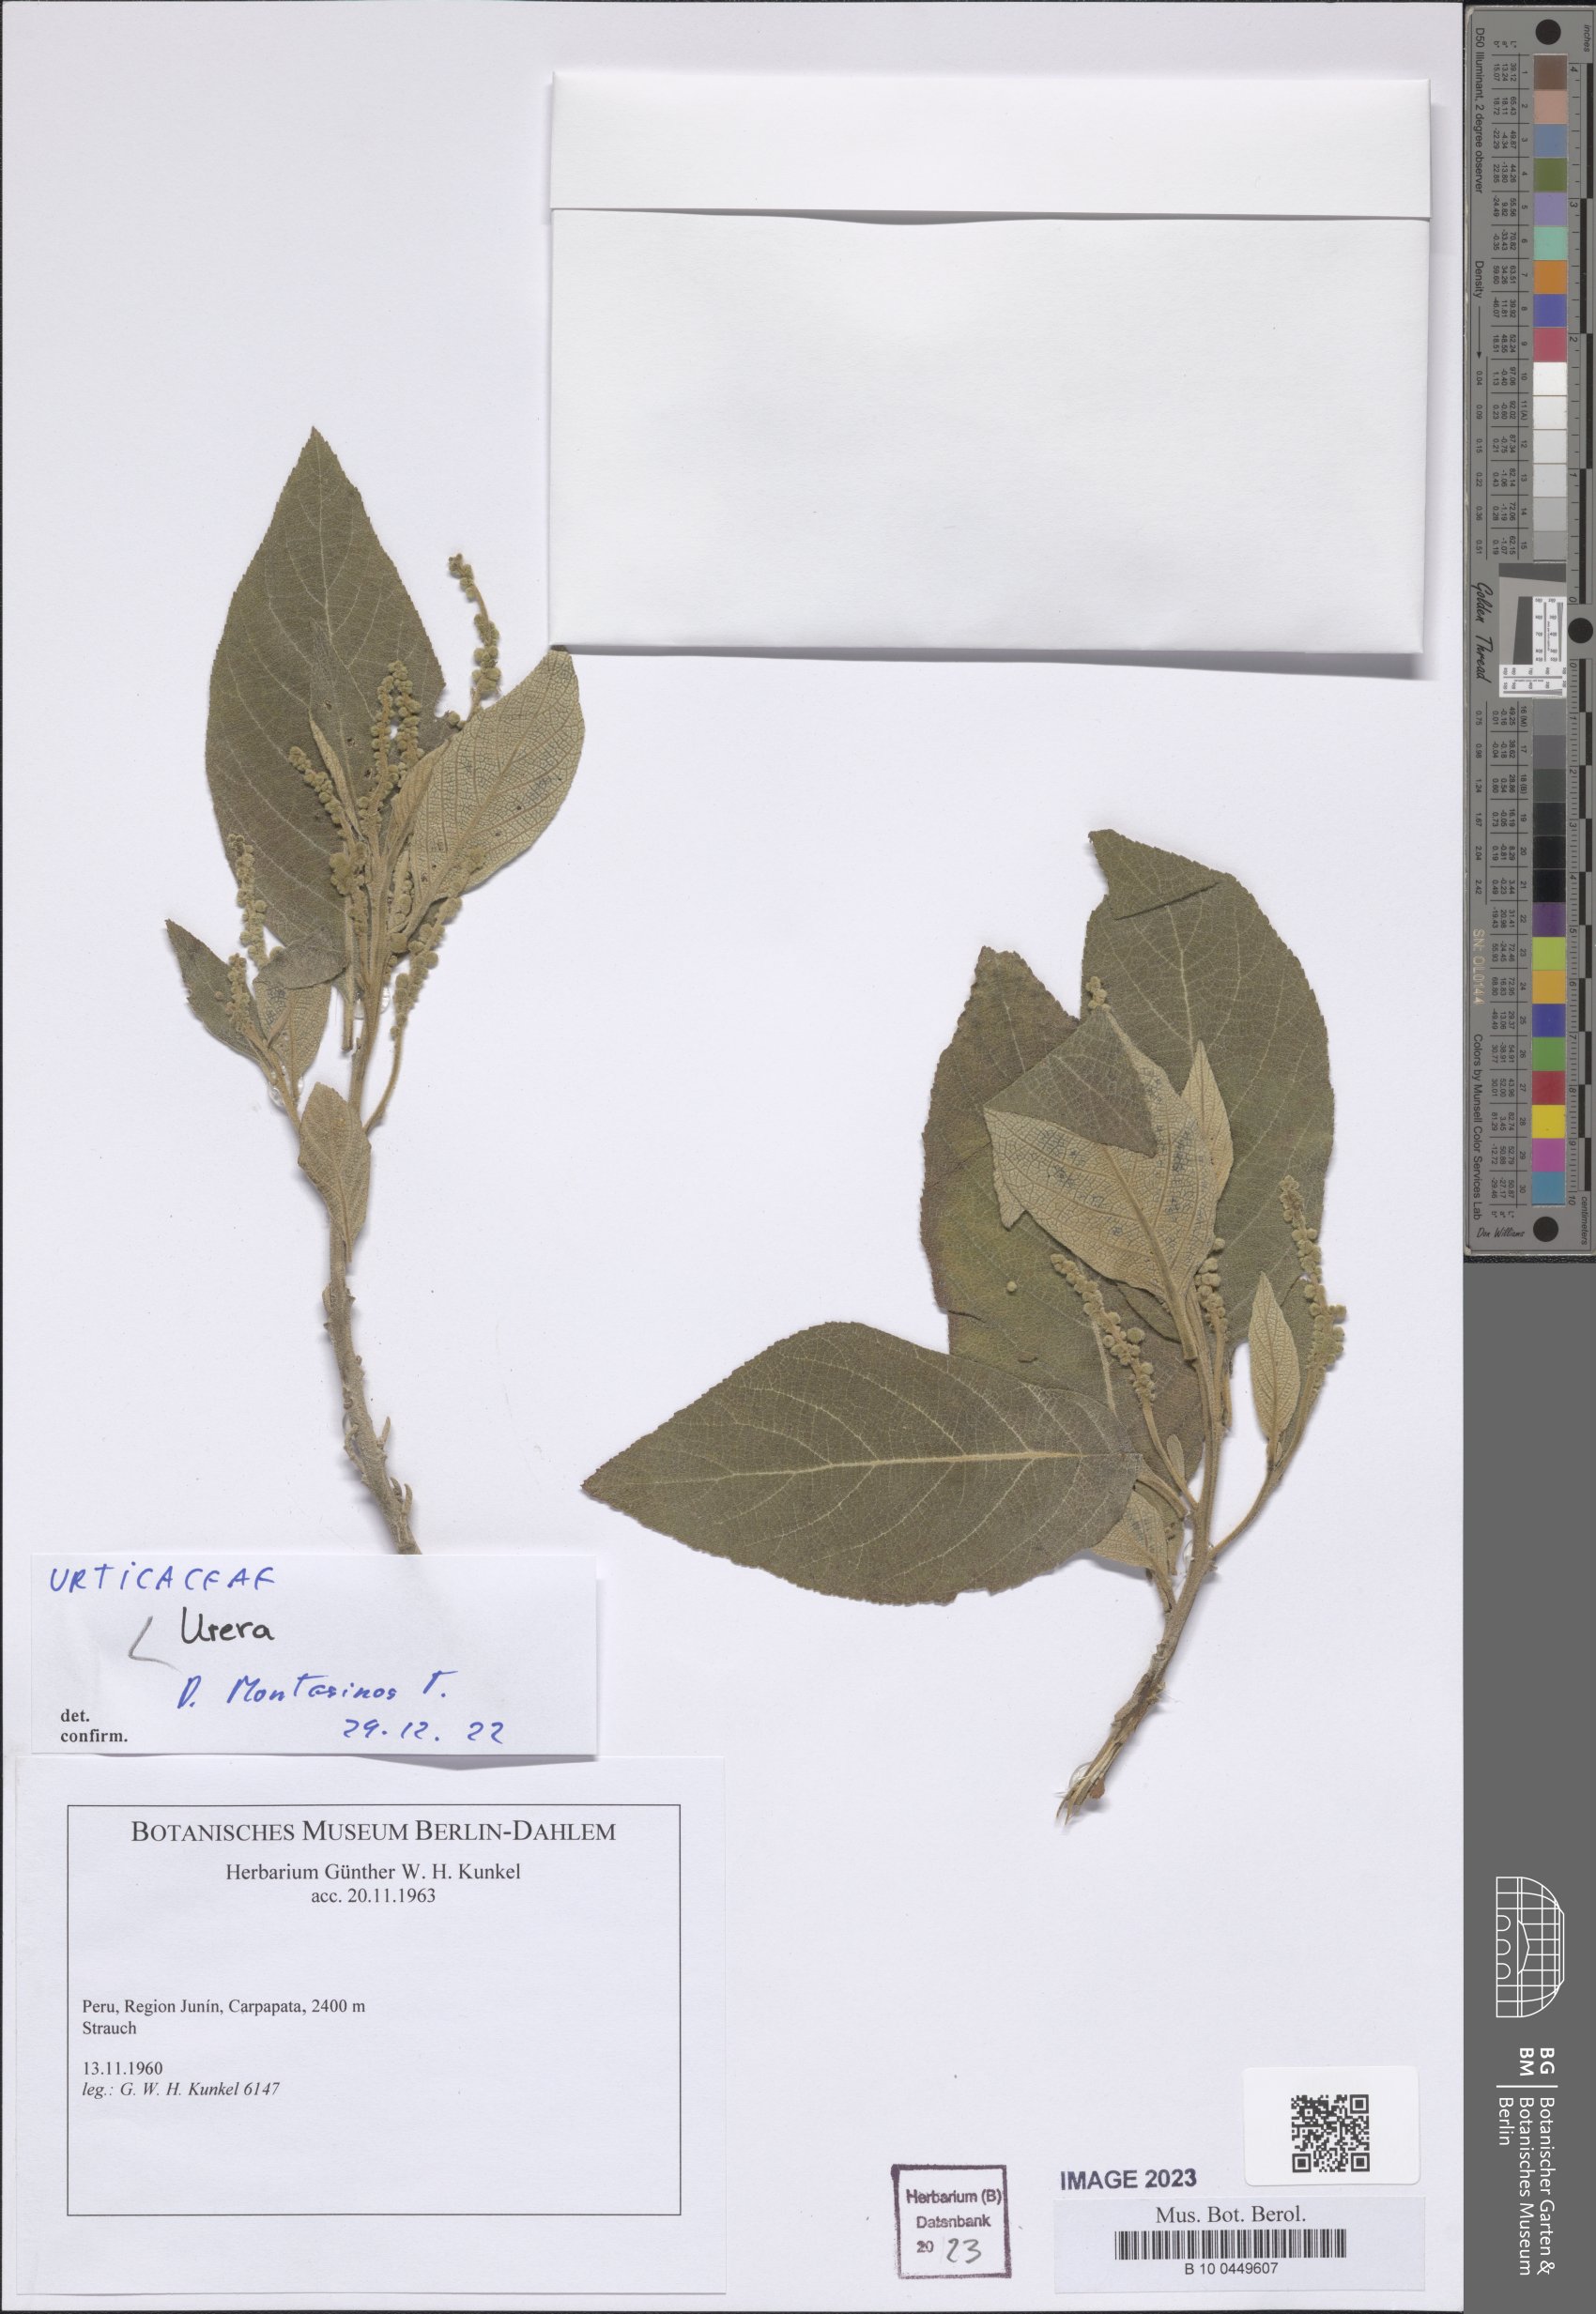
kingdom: Plantae
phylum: Tracheophyta
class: Magnoliopsida
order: Rosales
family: Urticaceae
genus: Urera
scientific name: Urera
